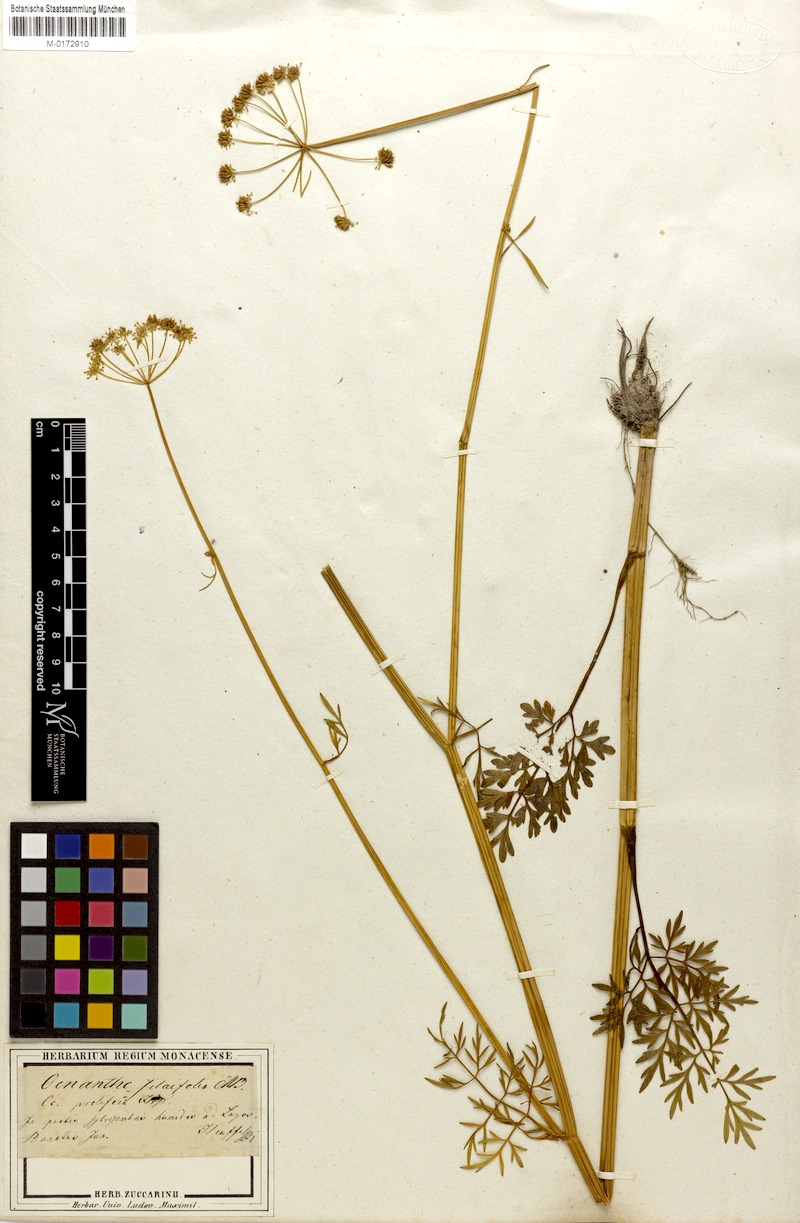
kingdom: Plantae
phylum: Tracheophyta
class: Magnoliopsida
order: Apiales
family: Apiaceae
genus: Oenanthe
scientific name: Oenanthe banatica
